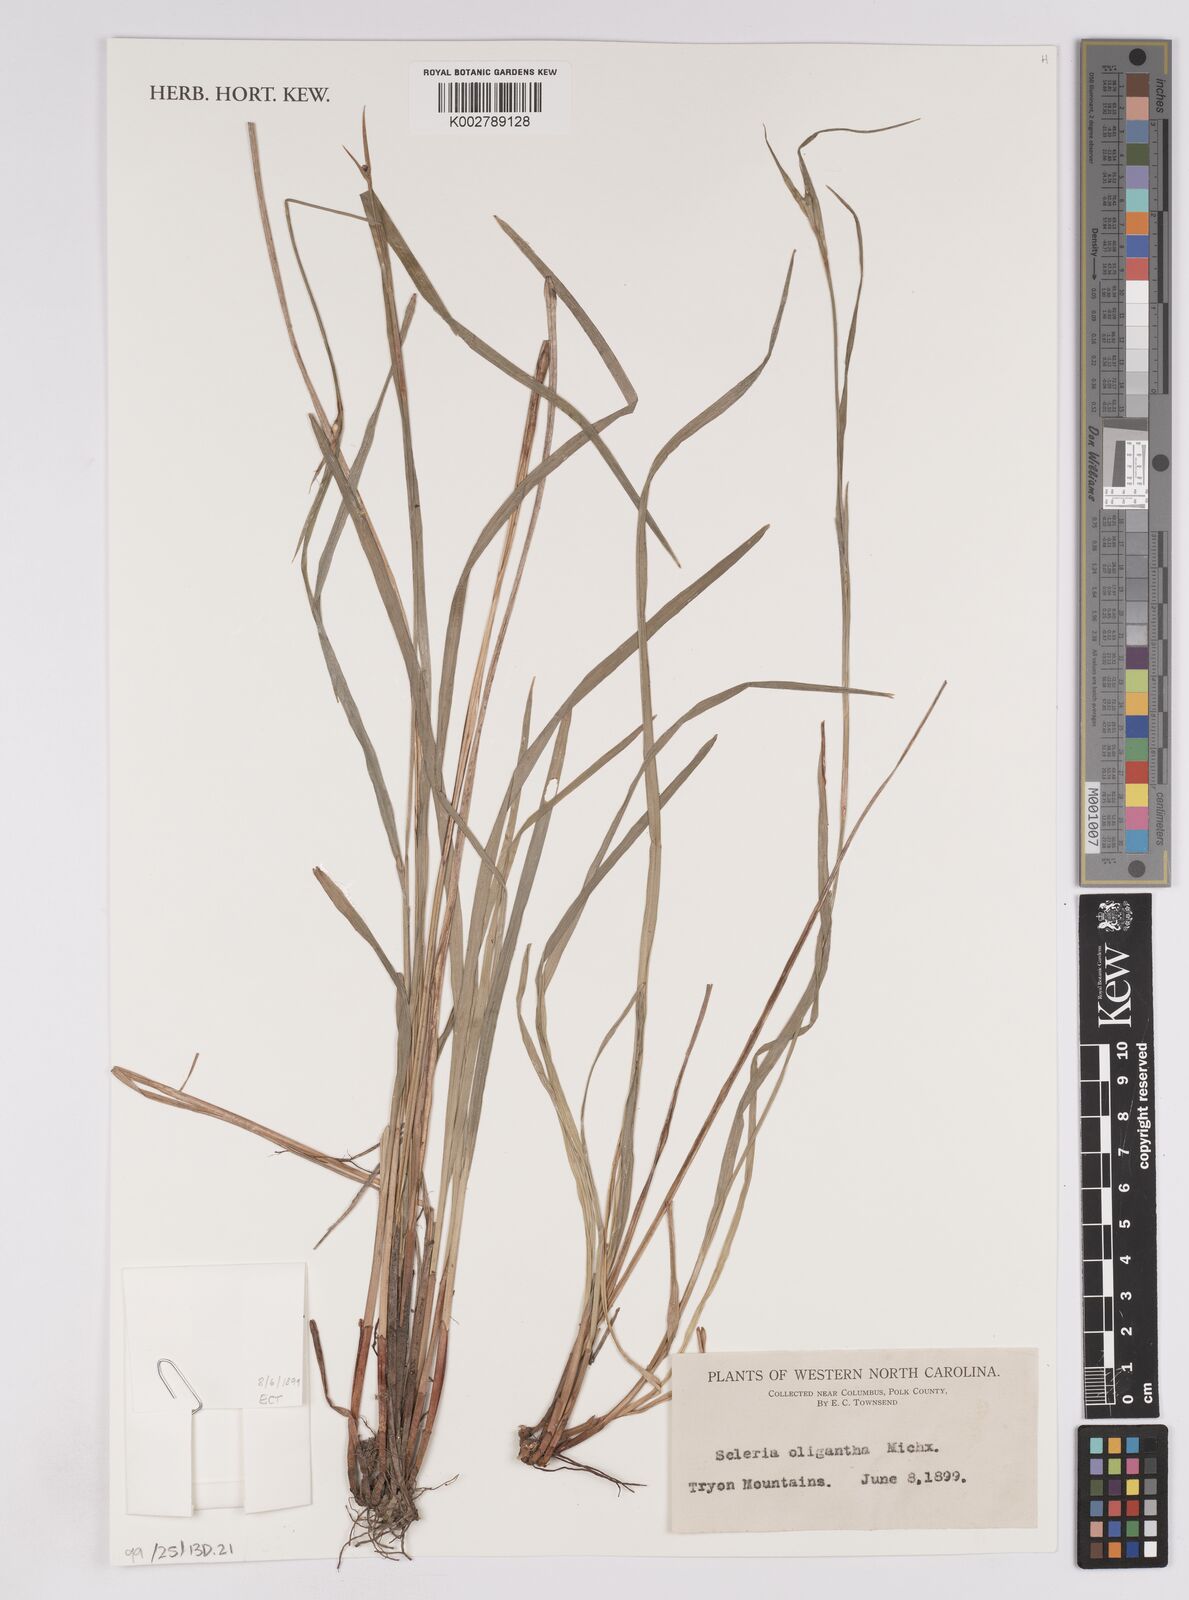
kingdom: Plantae
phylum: Tracheophyta
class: Liliopsida
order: Poales
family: Cyperaceae
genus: Scleria
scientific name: Scleria oligantha
